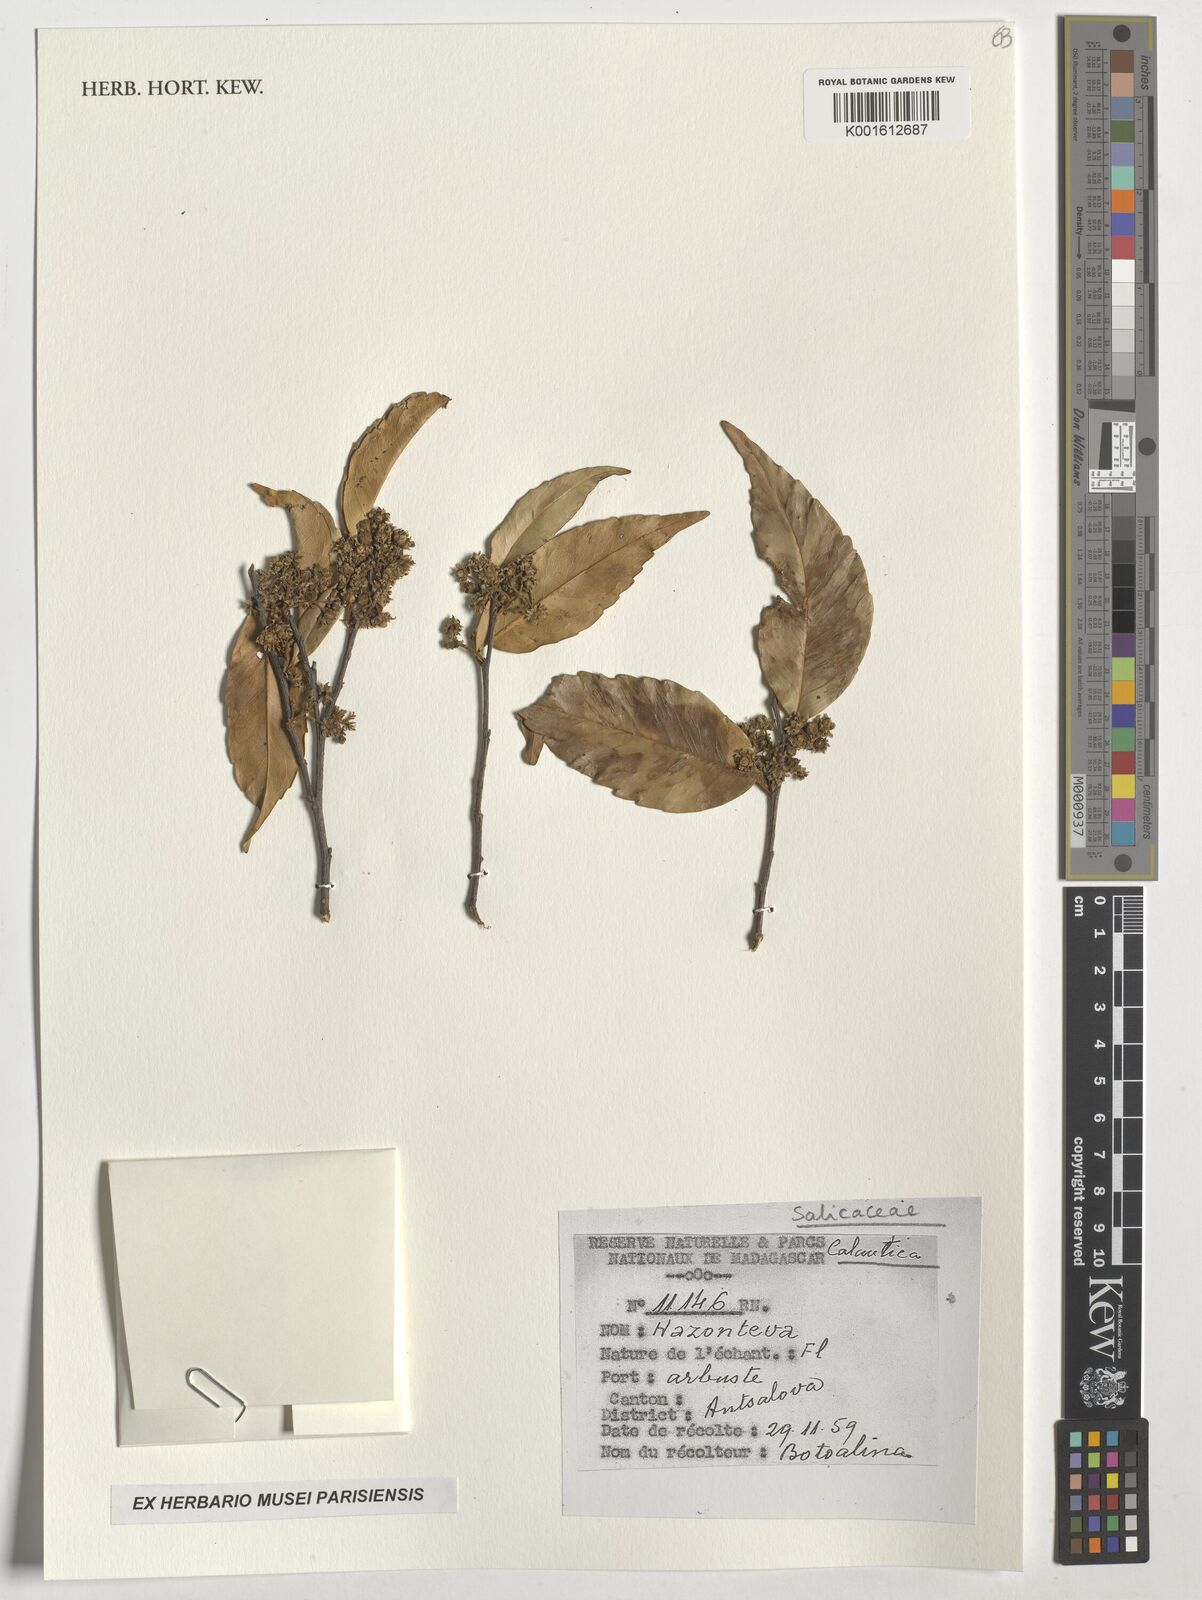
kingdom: Plantae
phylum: Tracheophyta
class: Magnoliopsida
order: Malpighiales
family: Salicaceae
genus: Calantica
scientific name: Calantica
